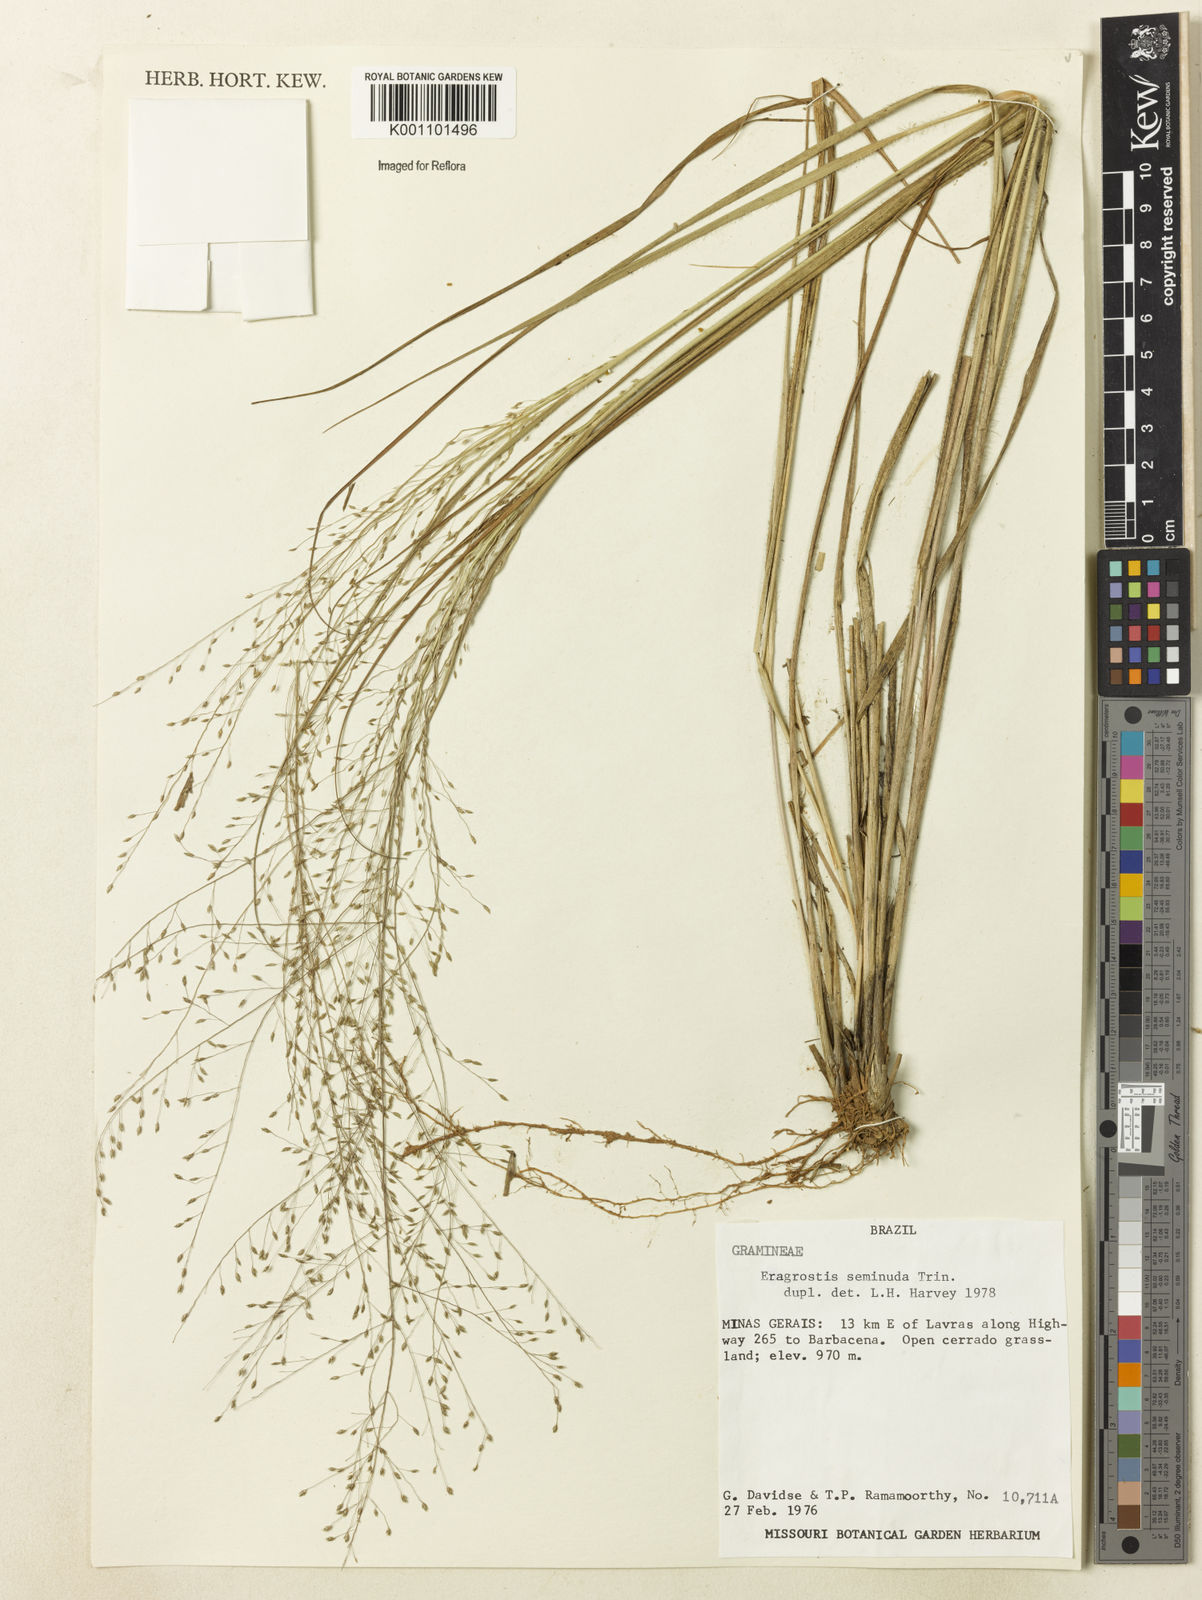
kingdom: Plantae
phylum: Tracheophyta
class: Liliopsida
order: Poales
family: Poaceae
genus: Eragrostis
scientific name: Eragrostis seminuda
